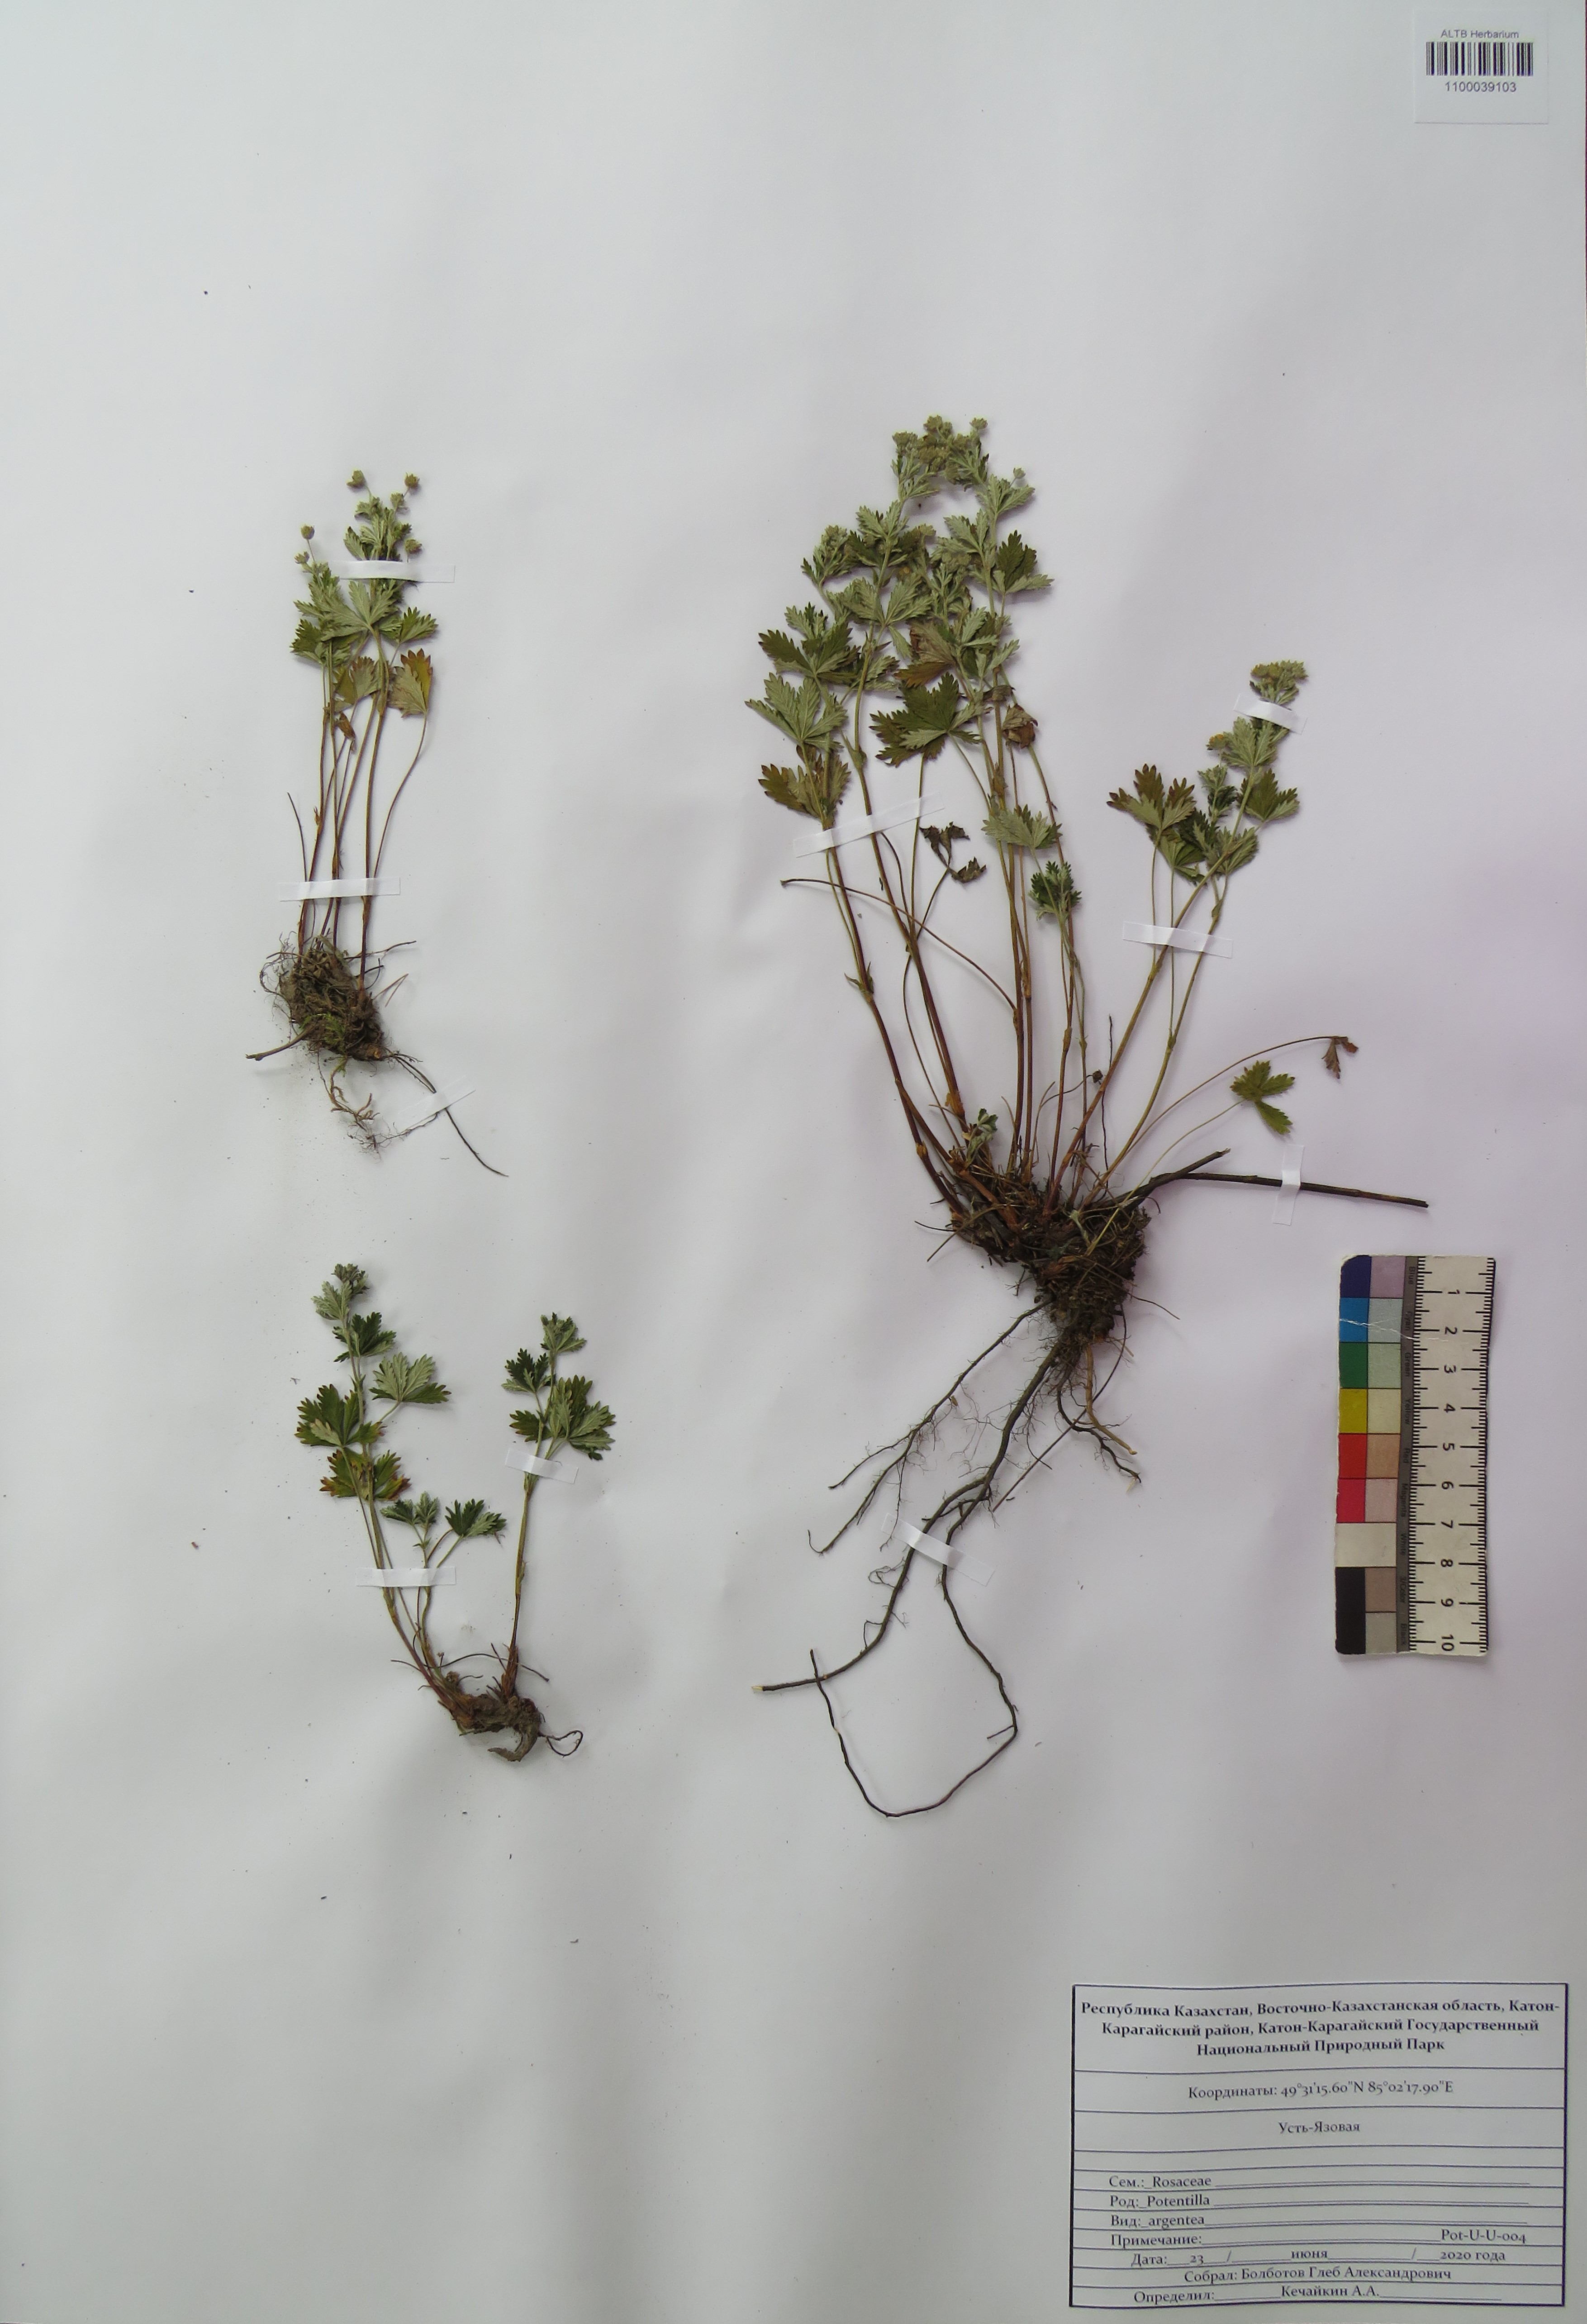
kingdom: Plantae
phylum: Tracheophyta
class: Magnoliopsida
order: Rosales
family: Rosaceae
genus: Potentilla
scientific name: Potentilla argentea
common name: Hoary cinquefoil
